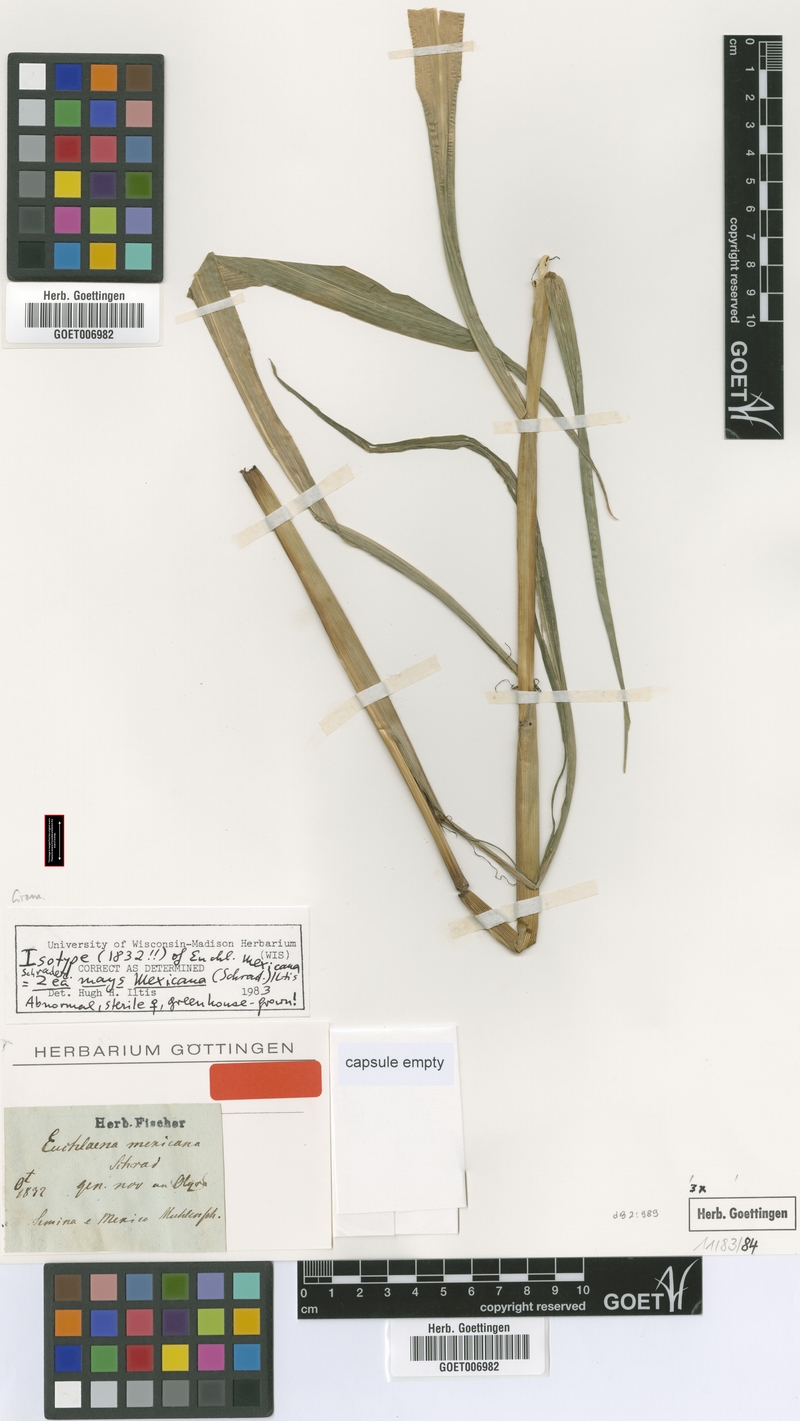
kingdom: Plantae
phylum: Tracheophyta
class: Liliopsida
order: Poales
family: Poaceae
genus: Zea
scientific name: Zea mexicana
